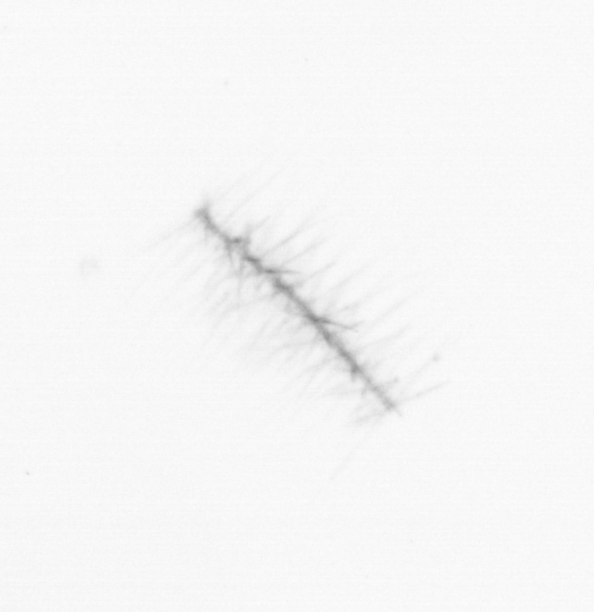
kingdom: Chromista
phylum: Ochrophyta
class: Bacillariophyceae
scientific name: Bacillariophyceae
